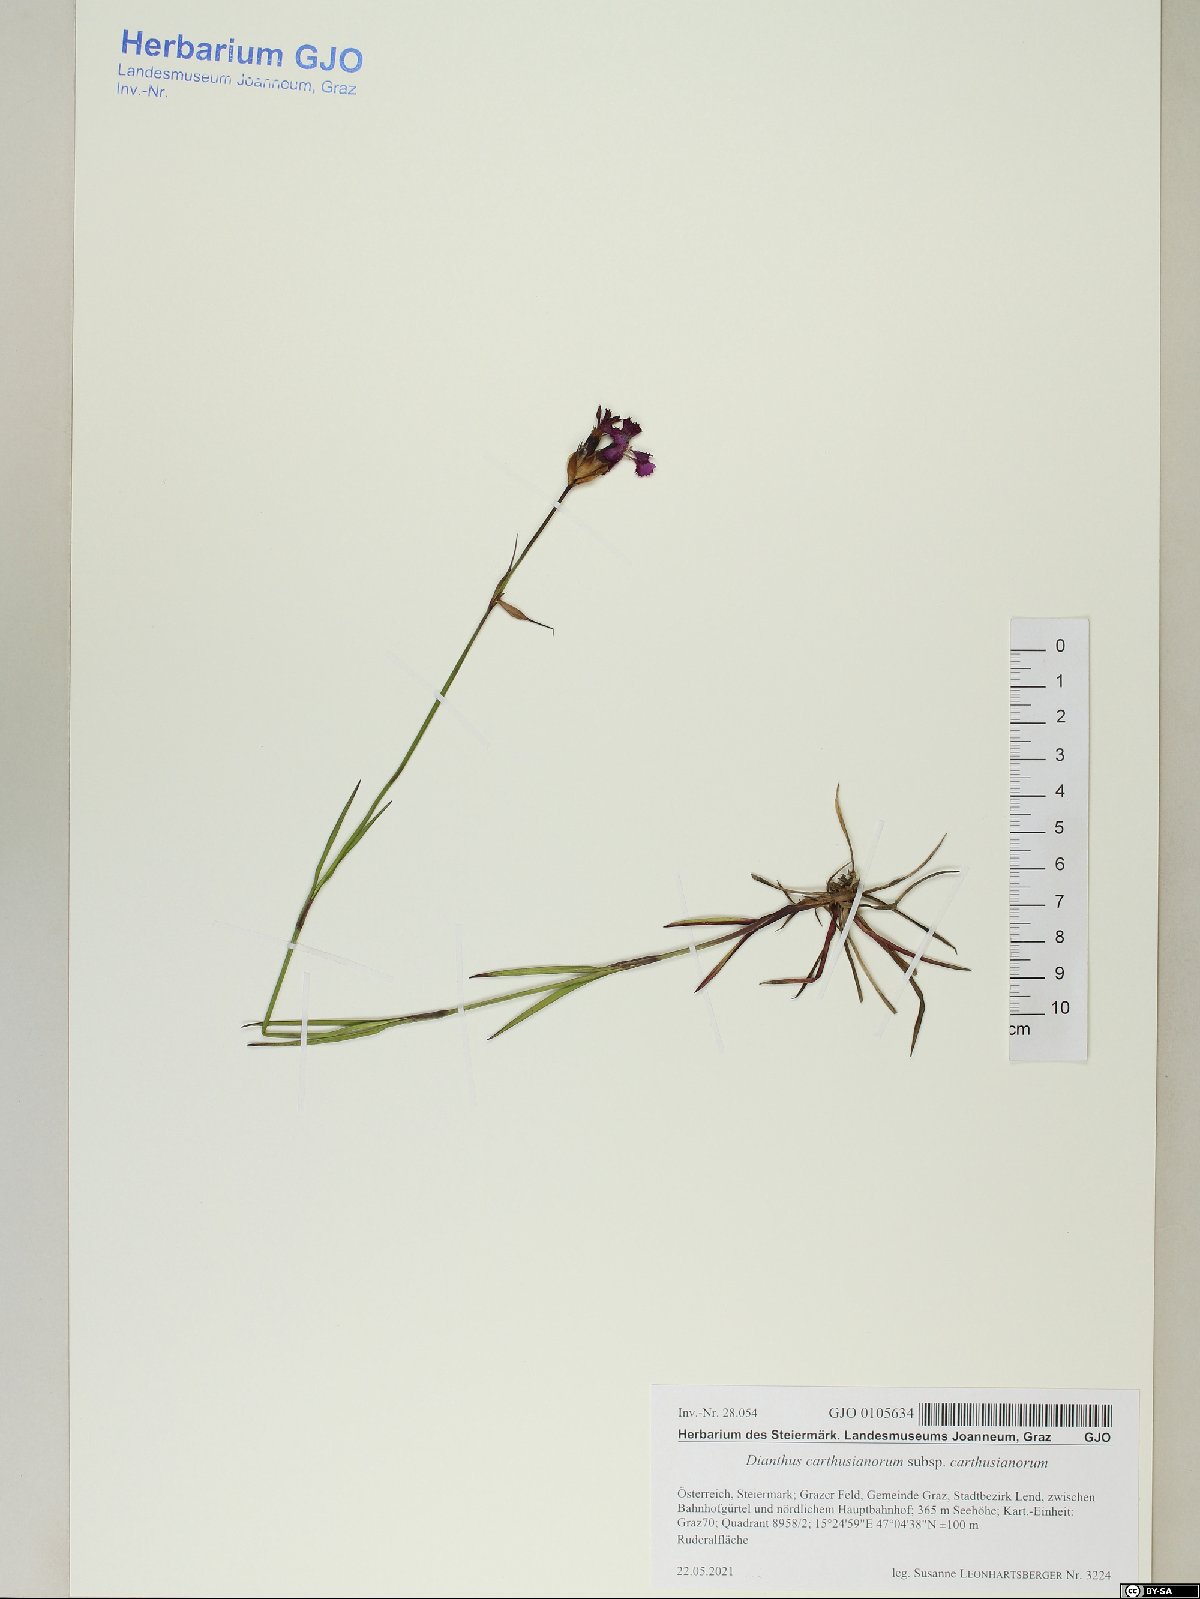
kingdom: Plantae
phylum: Tracheophyta
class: Magnoliopsida
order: Caryophyllales
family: Caryophyllaceae
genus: Dianthus
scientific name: Dianthus carthusianorum
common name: Carthusian pink
